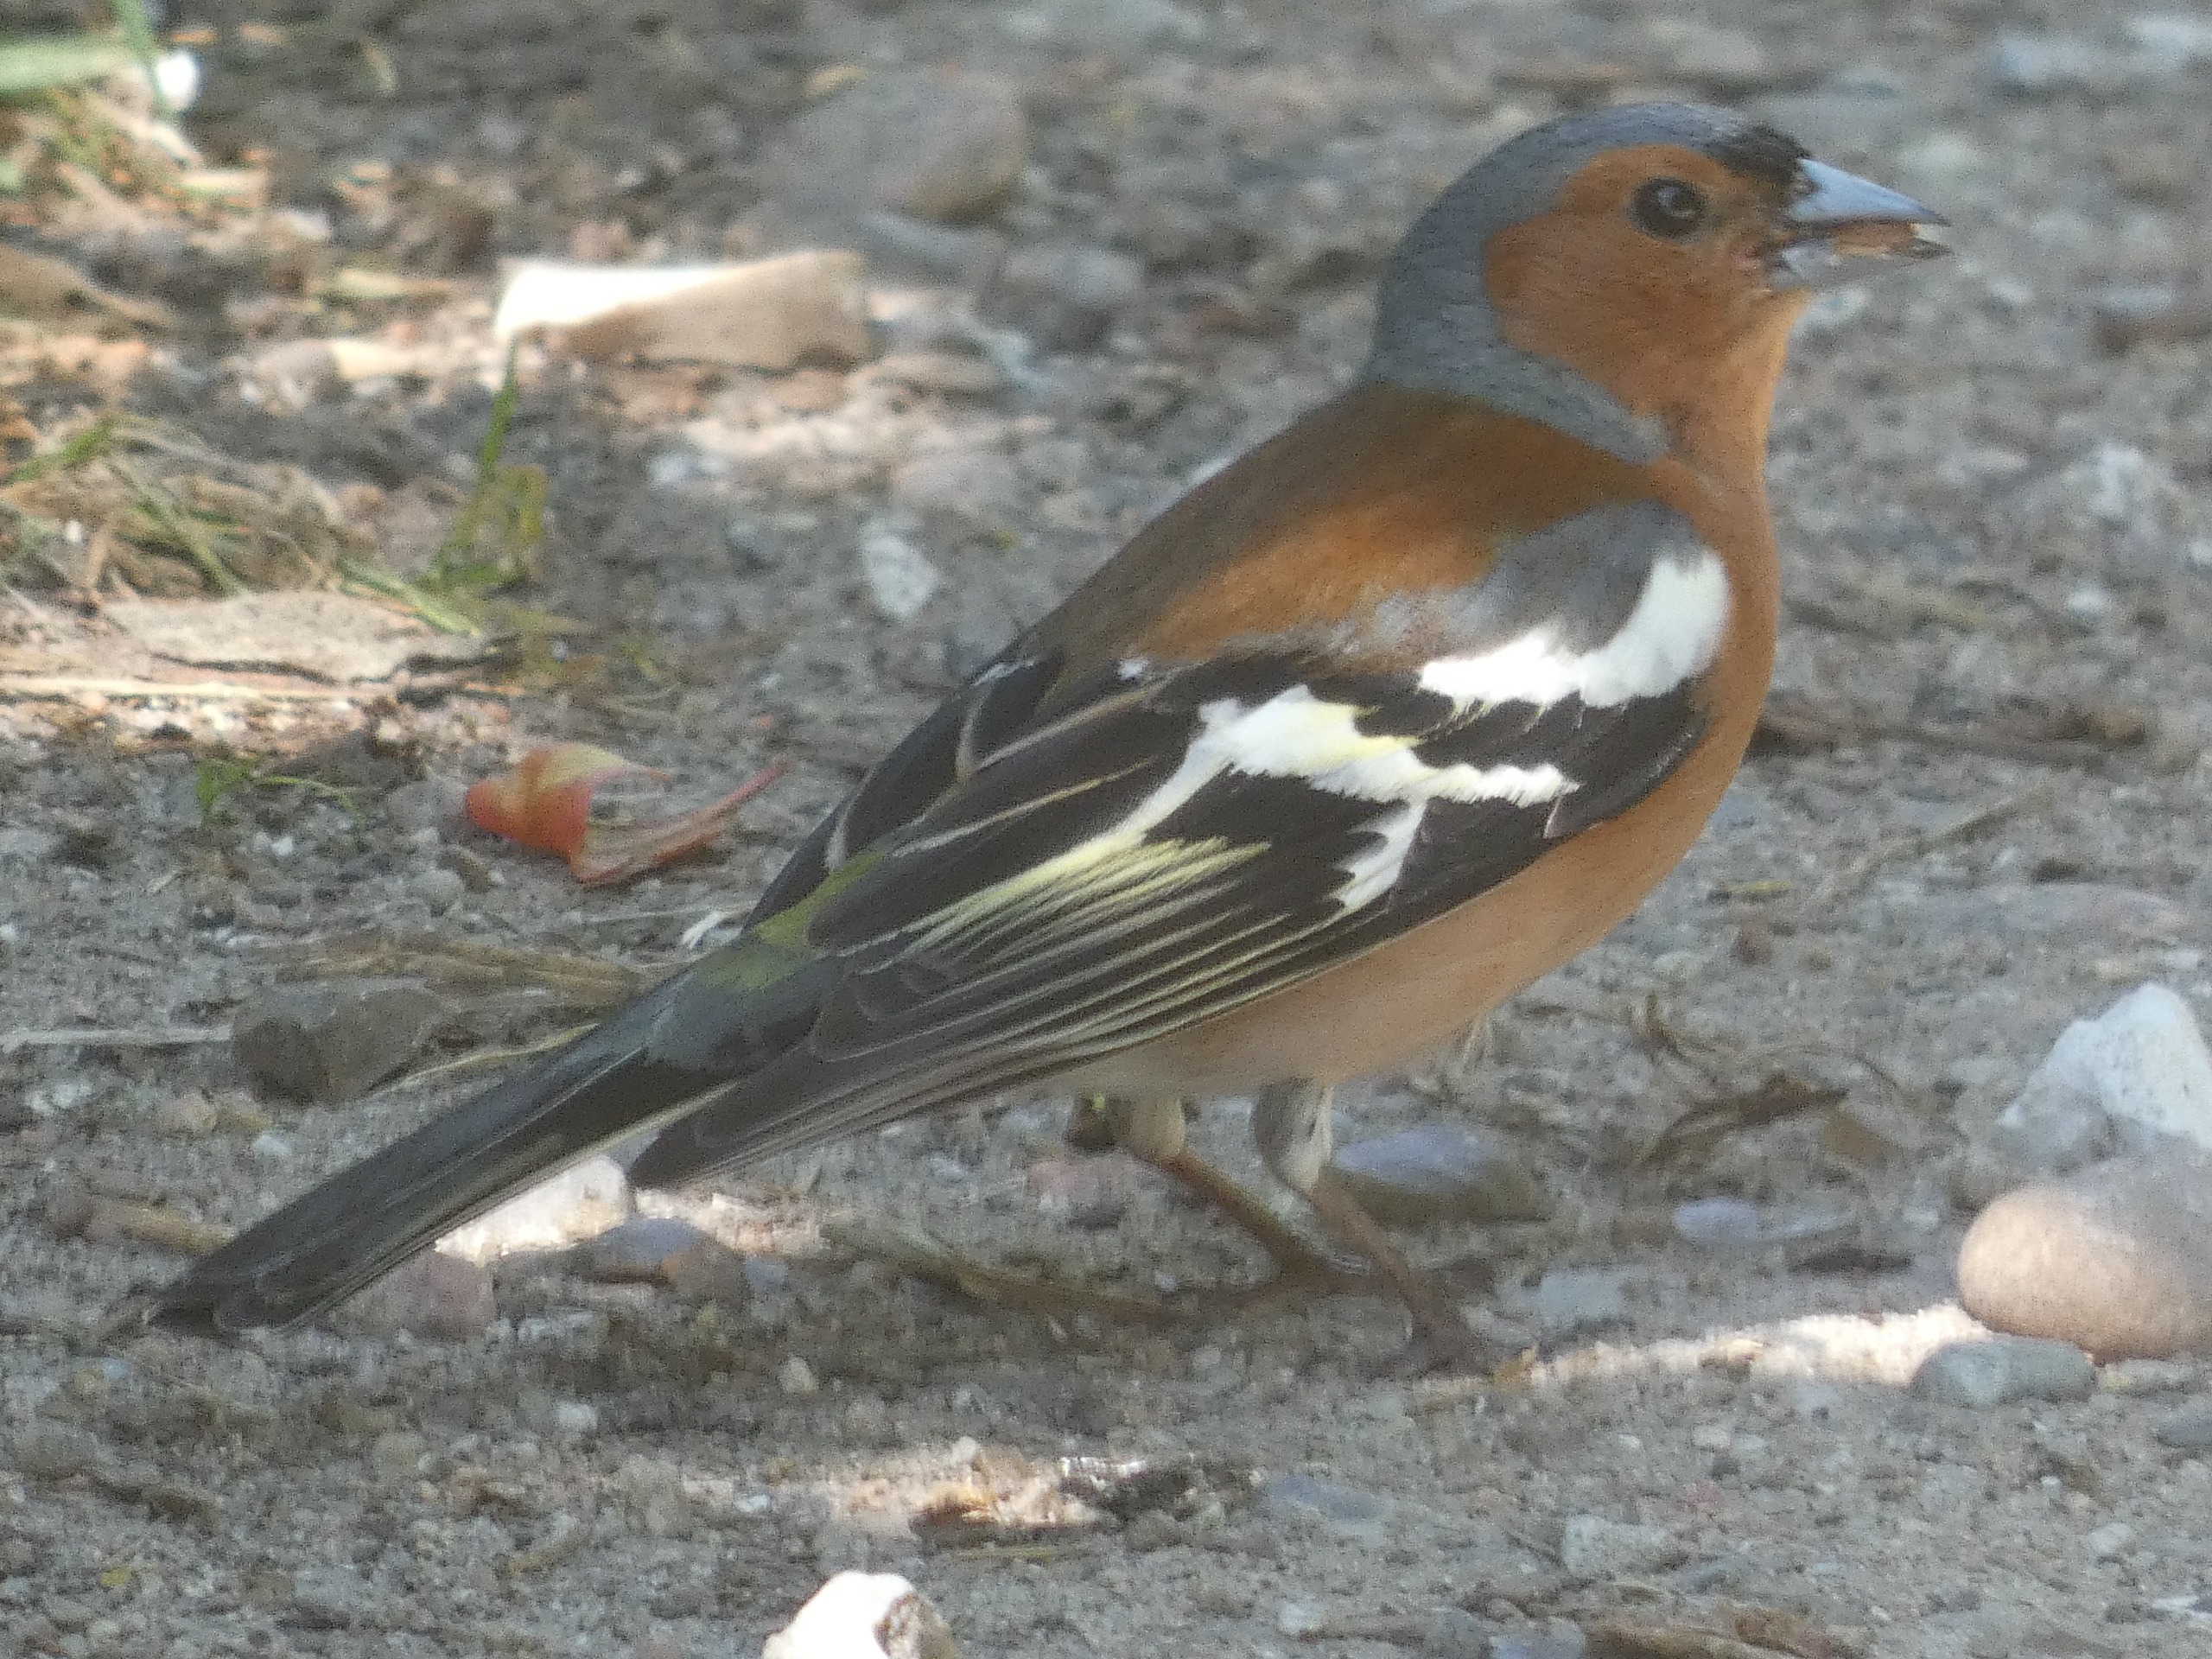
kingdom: Animalia
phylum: Chordata
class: Aves
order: Passeriformes
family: Fringillidae
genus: Fringilla
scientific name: Fringilla coelebs
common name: Bogfinke
